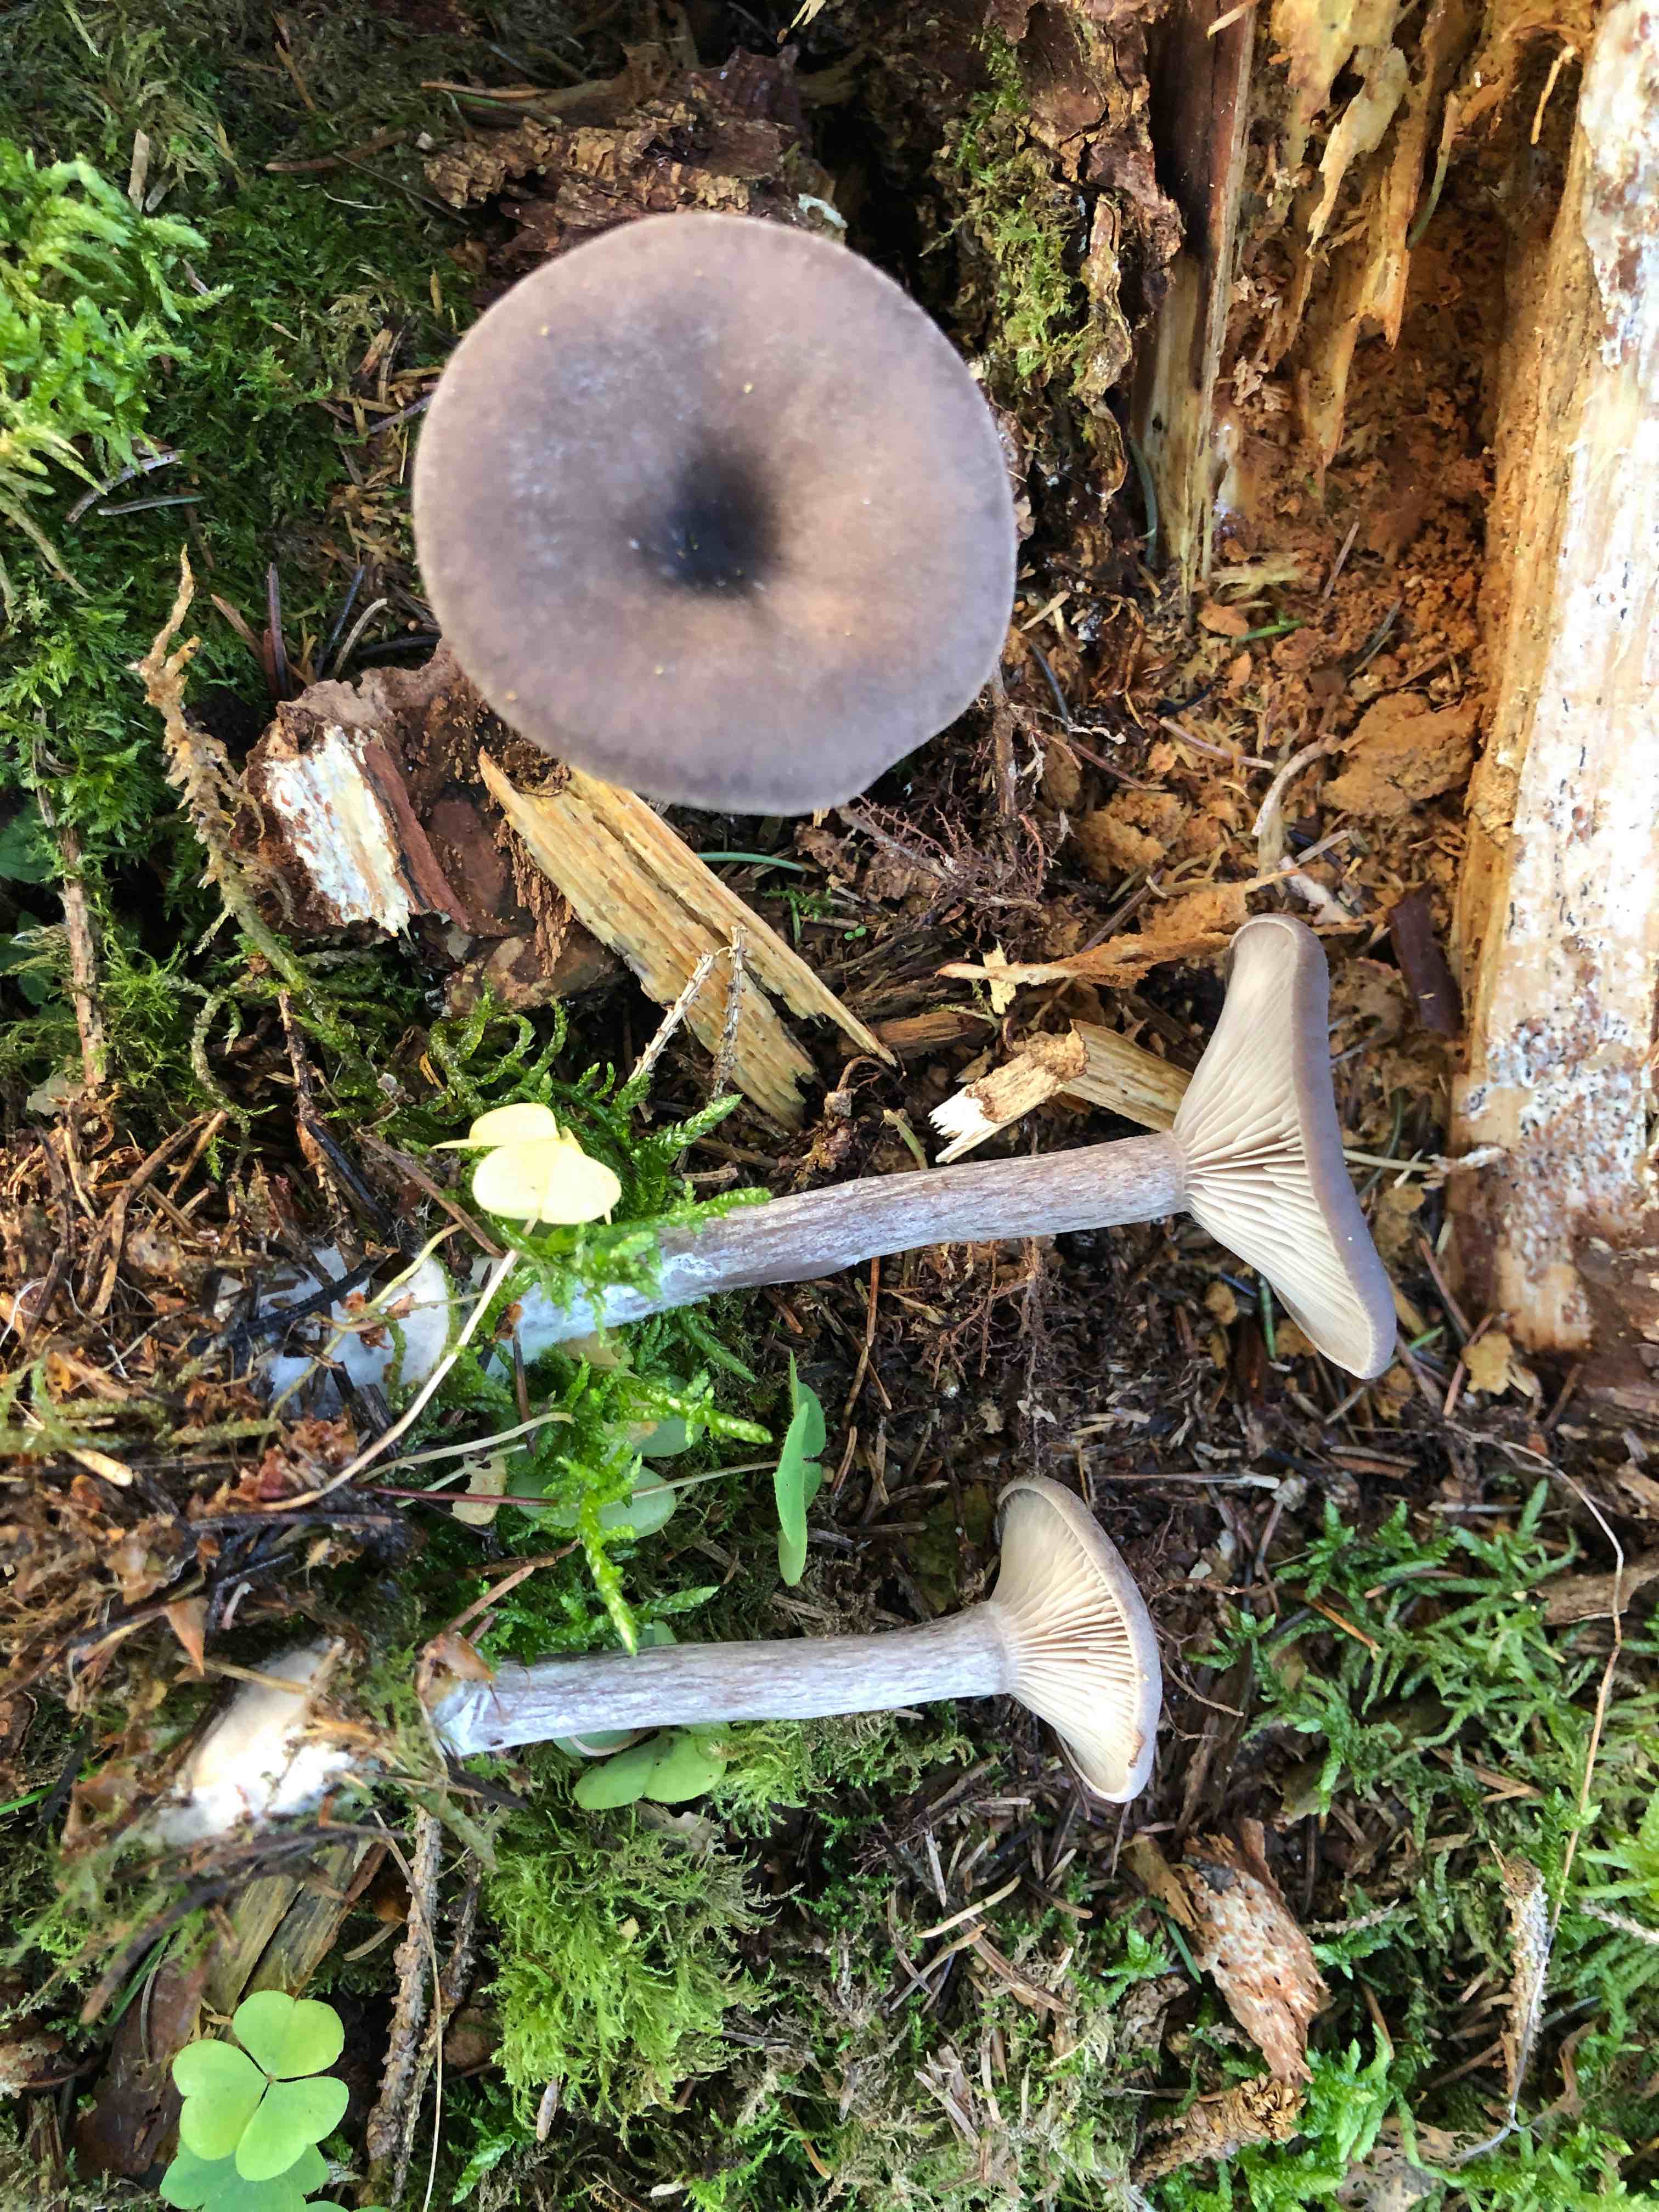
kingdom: Fungi
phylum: Basidiomycota
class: Agaricomycetes
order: Agaricales
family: Pseudoclitocybaceae
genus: Pseudoclitocybe
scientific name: Pseudoclitocybe cyathiformis
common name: almindelig bægertragthat
